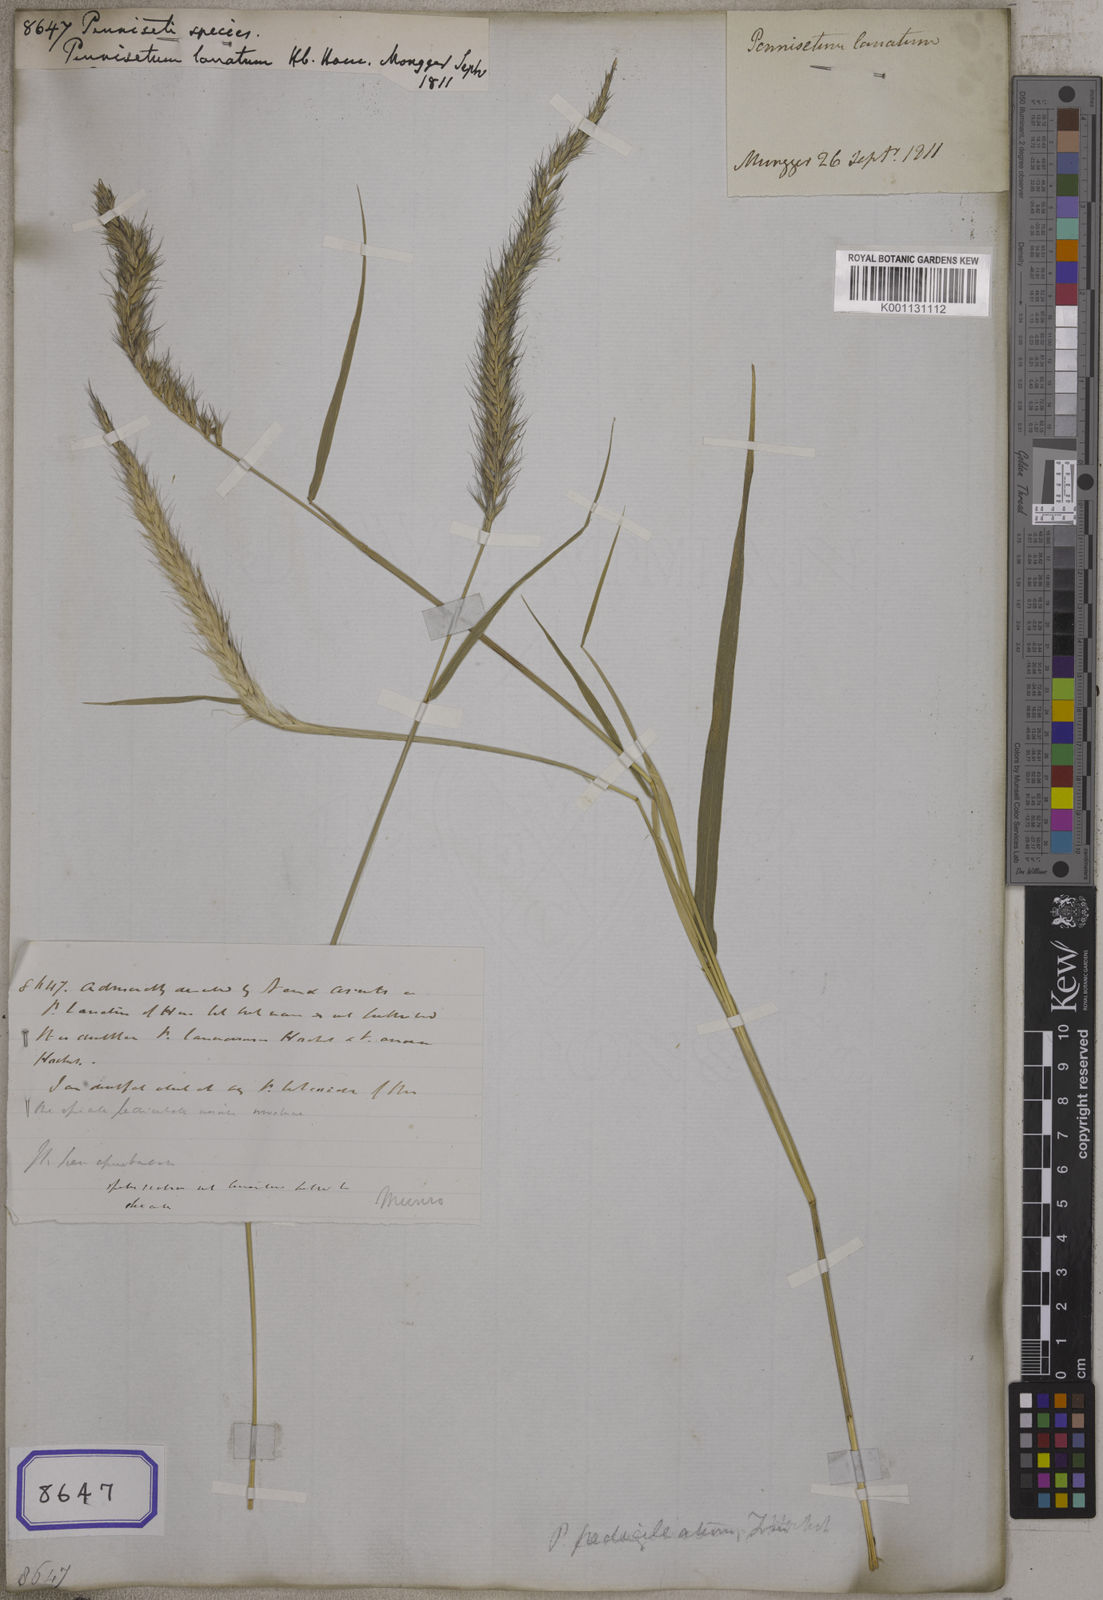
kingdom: Plantae
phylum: Tracheophyta
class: Liliopsida
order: Poales
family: Poaceae
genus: Cenchrus
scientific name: Cenchrus Pennisetum spec
